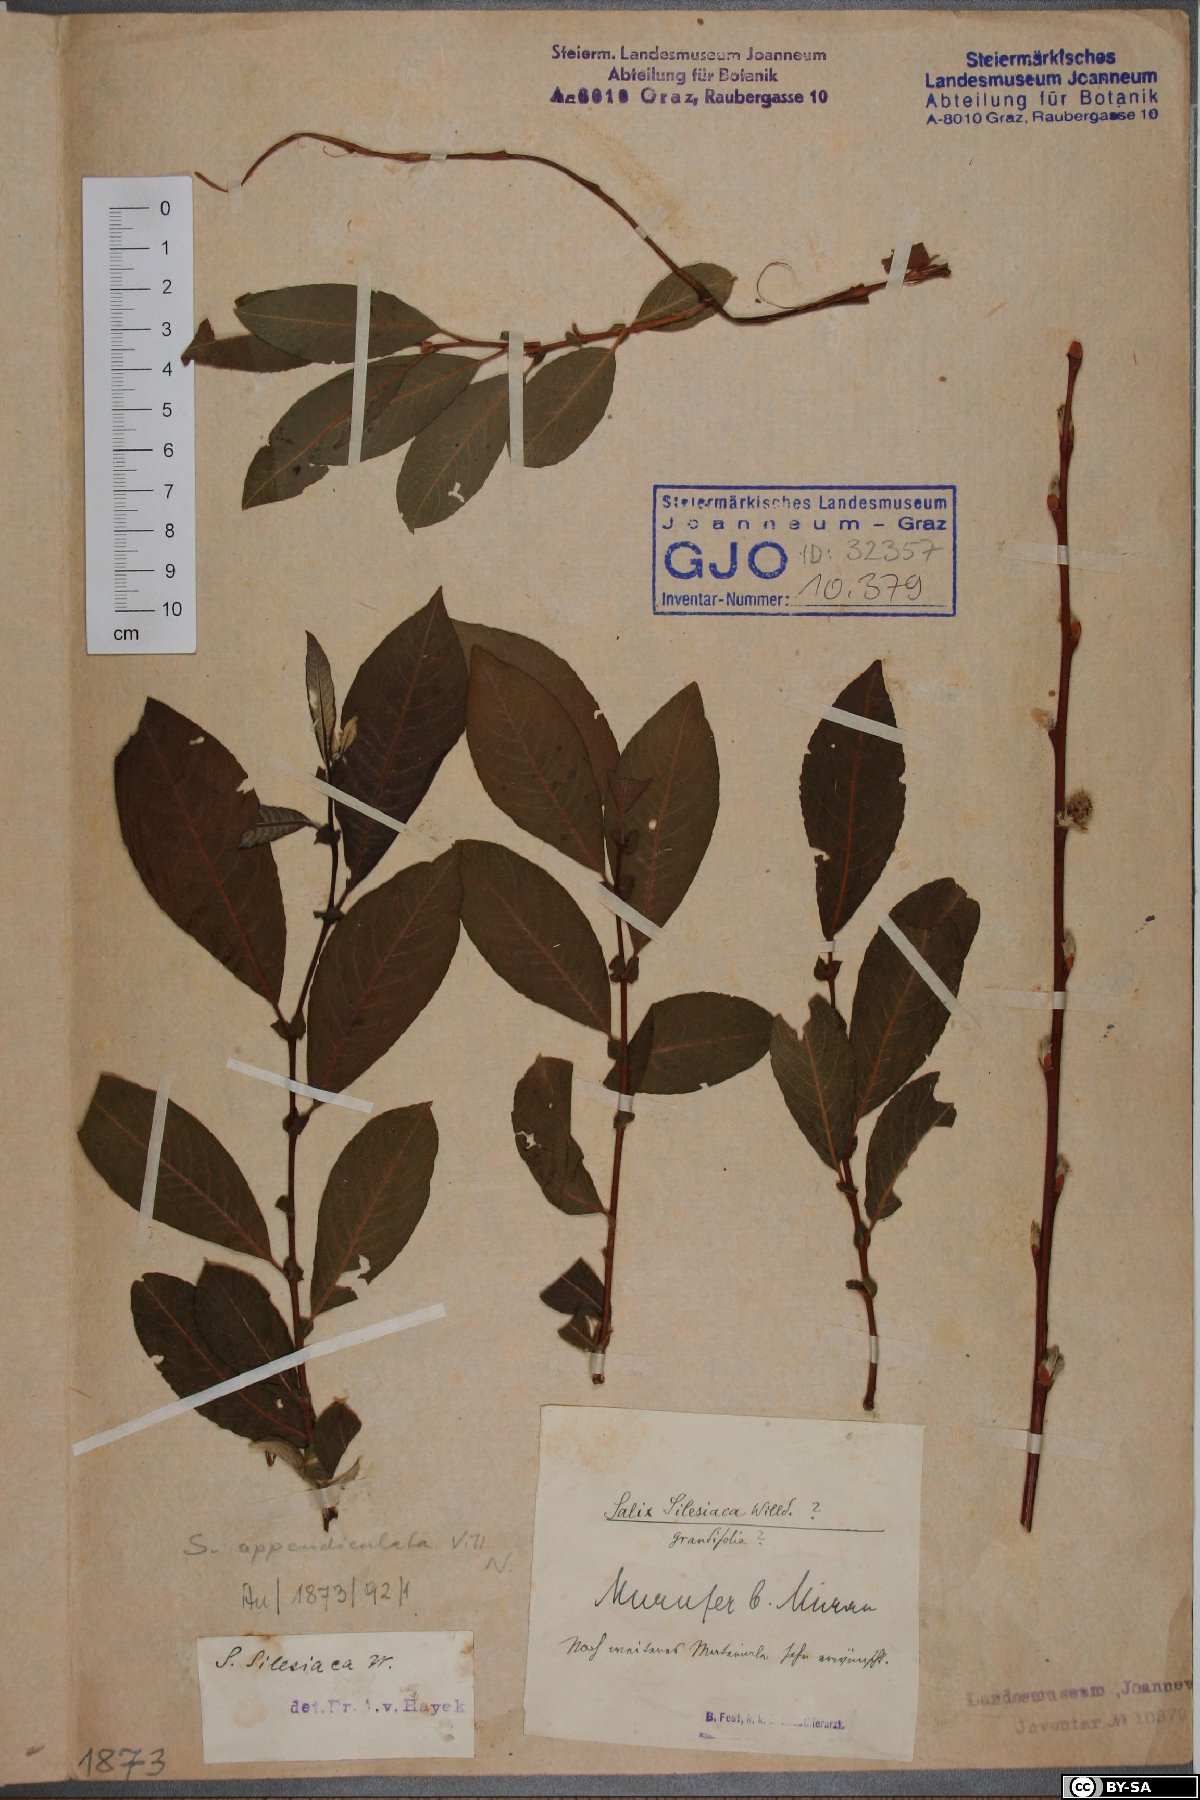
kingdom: Plantae
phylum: Tracheophyta
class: Magnoliopsida
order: Malpighiales
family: Salicaceae
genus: Salix
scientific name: Salix silesiaca
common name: Silesian willow
